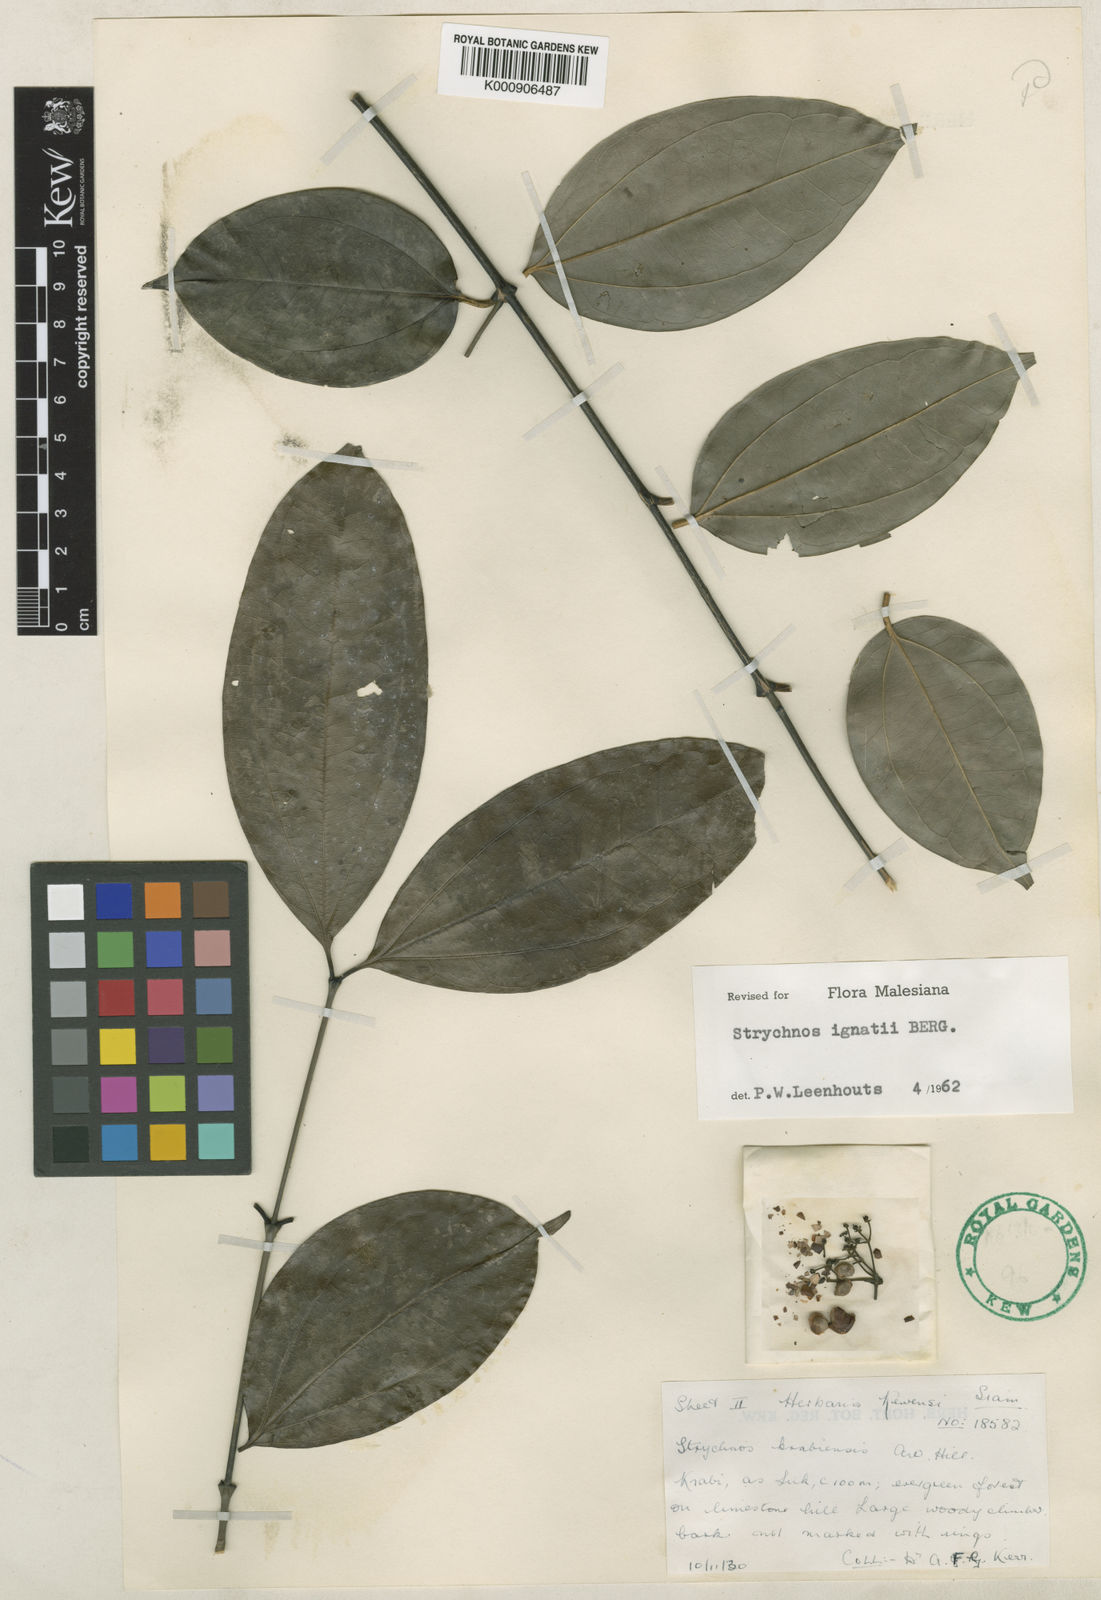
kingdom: Plantae
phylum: Tracheophyta
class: Magnoliopsida
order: Gentianales
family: Loganiaceae
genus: Strychnos
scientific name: Strychnos ignatii
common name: Ignatius-bean
